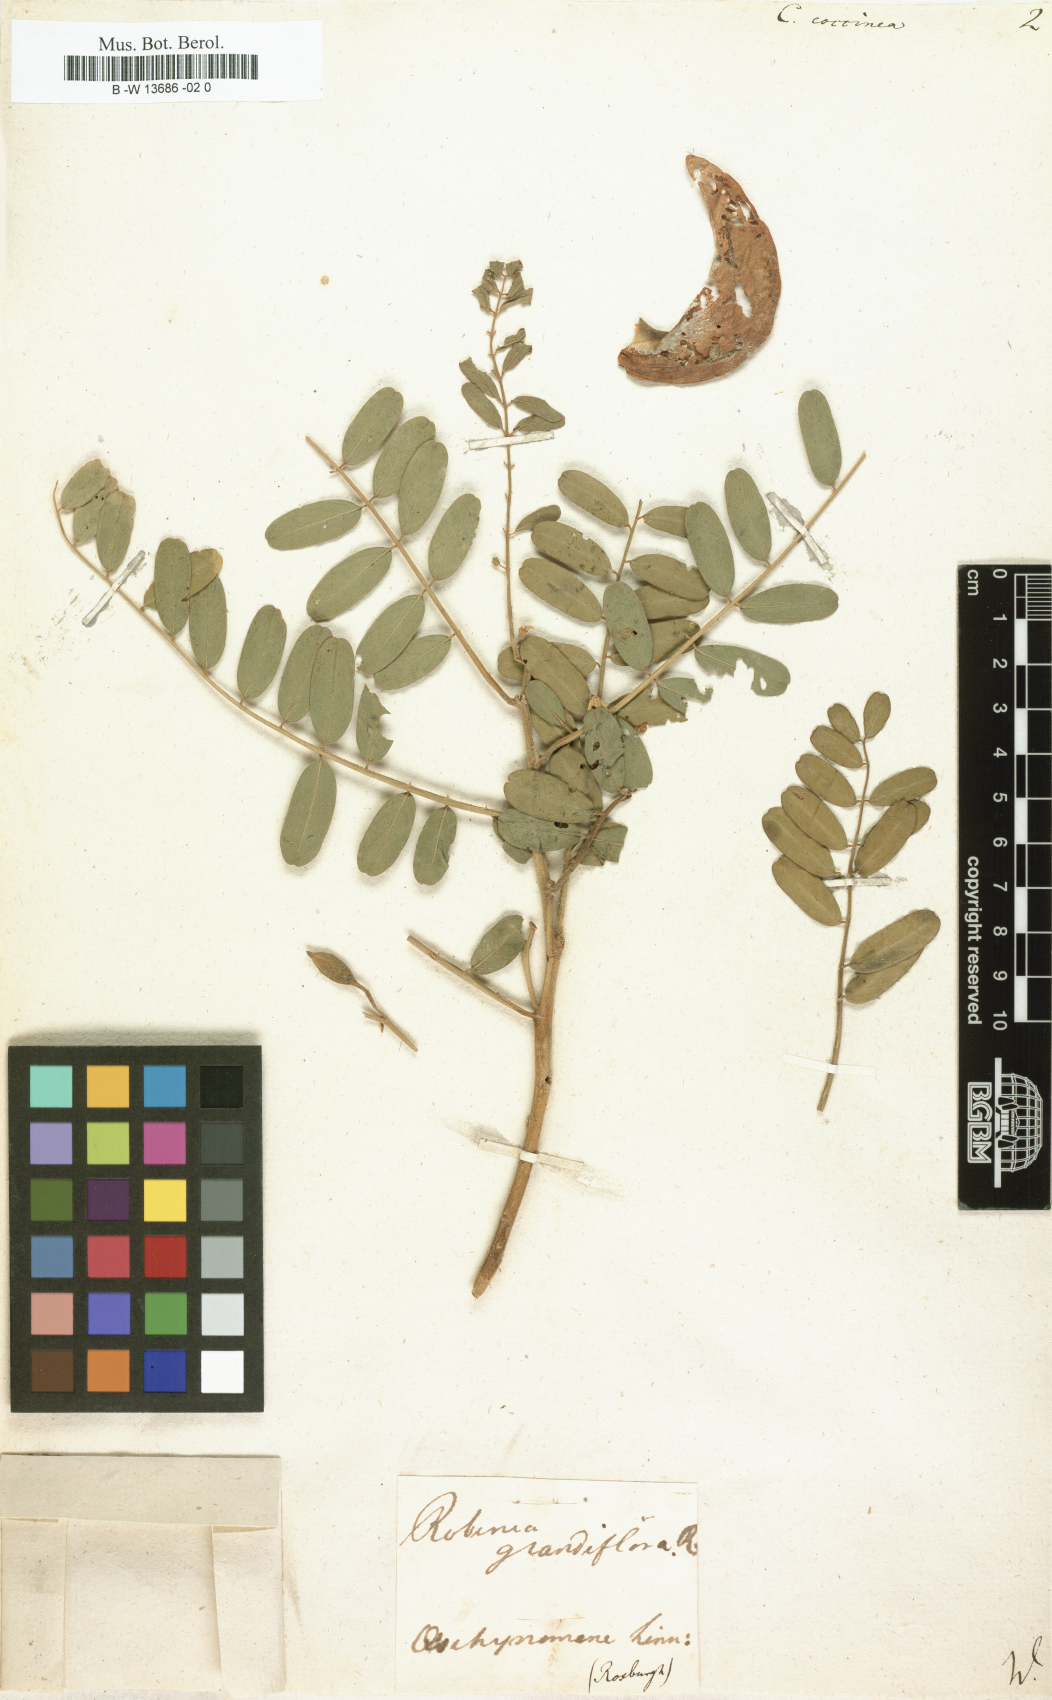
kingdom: Plantae
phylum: Tracheophyta
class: Magnoliopsida
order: Fabales
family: Fabaceae
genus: Sesbania
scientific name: Sesbania coccinea
